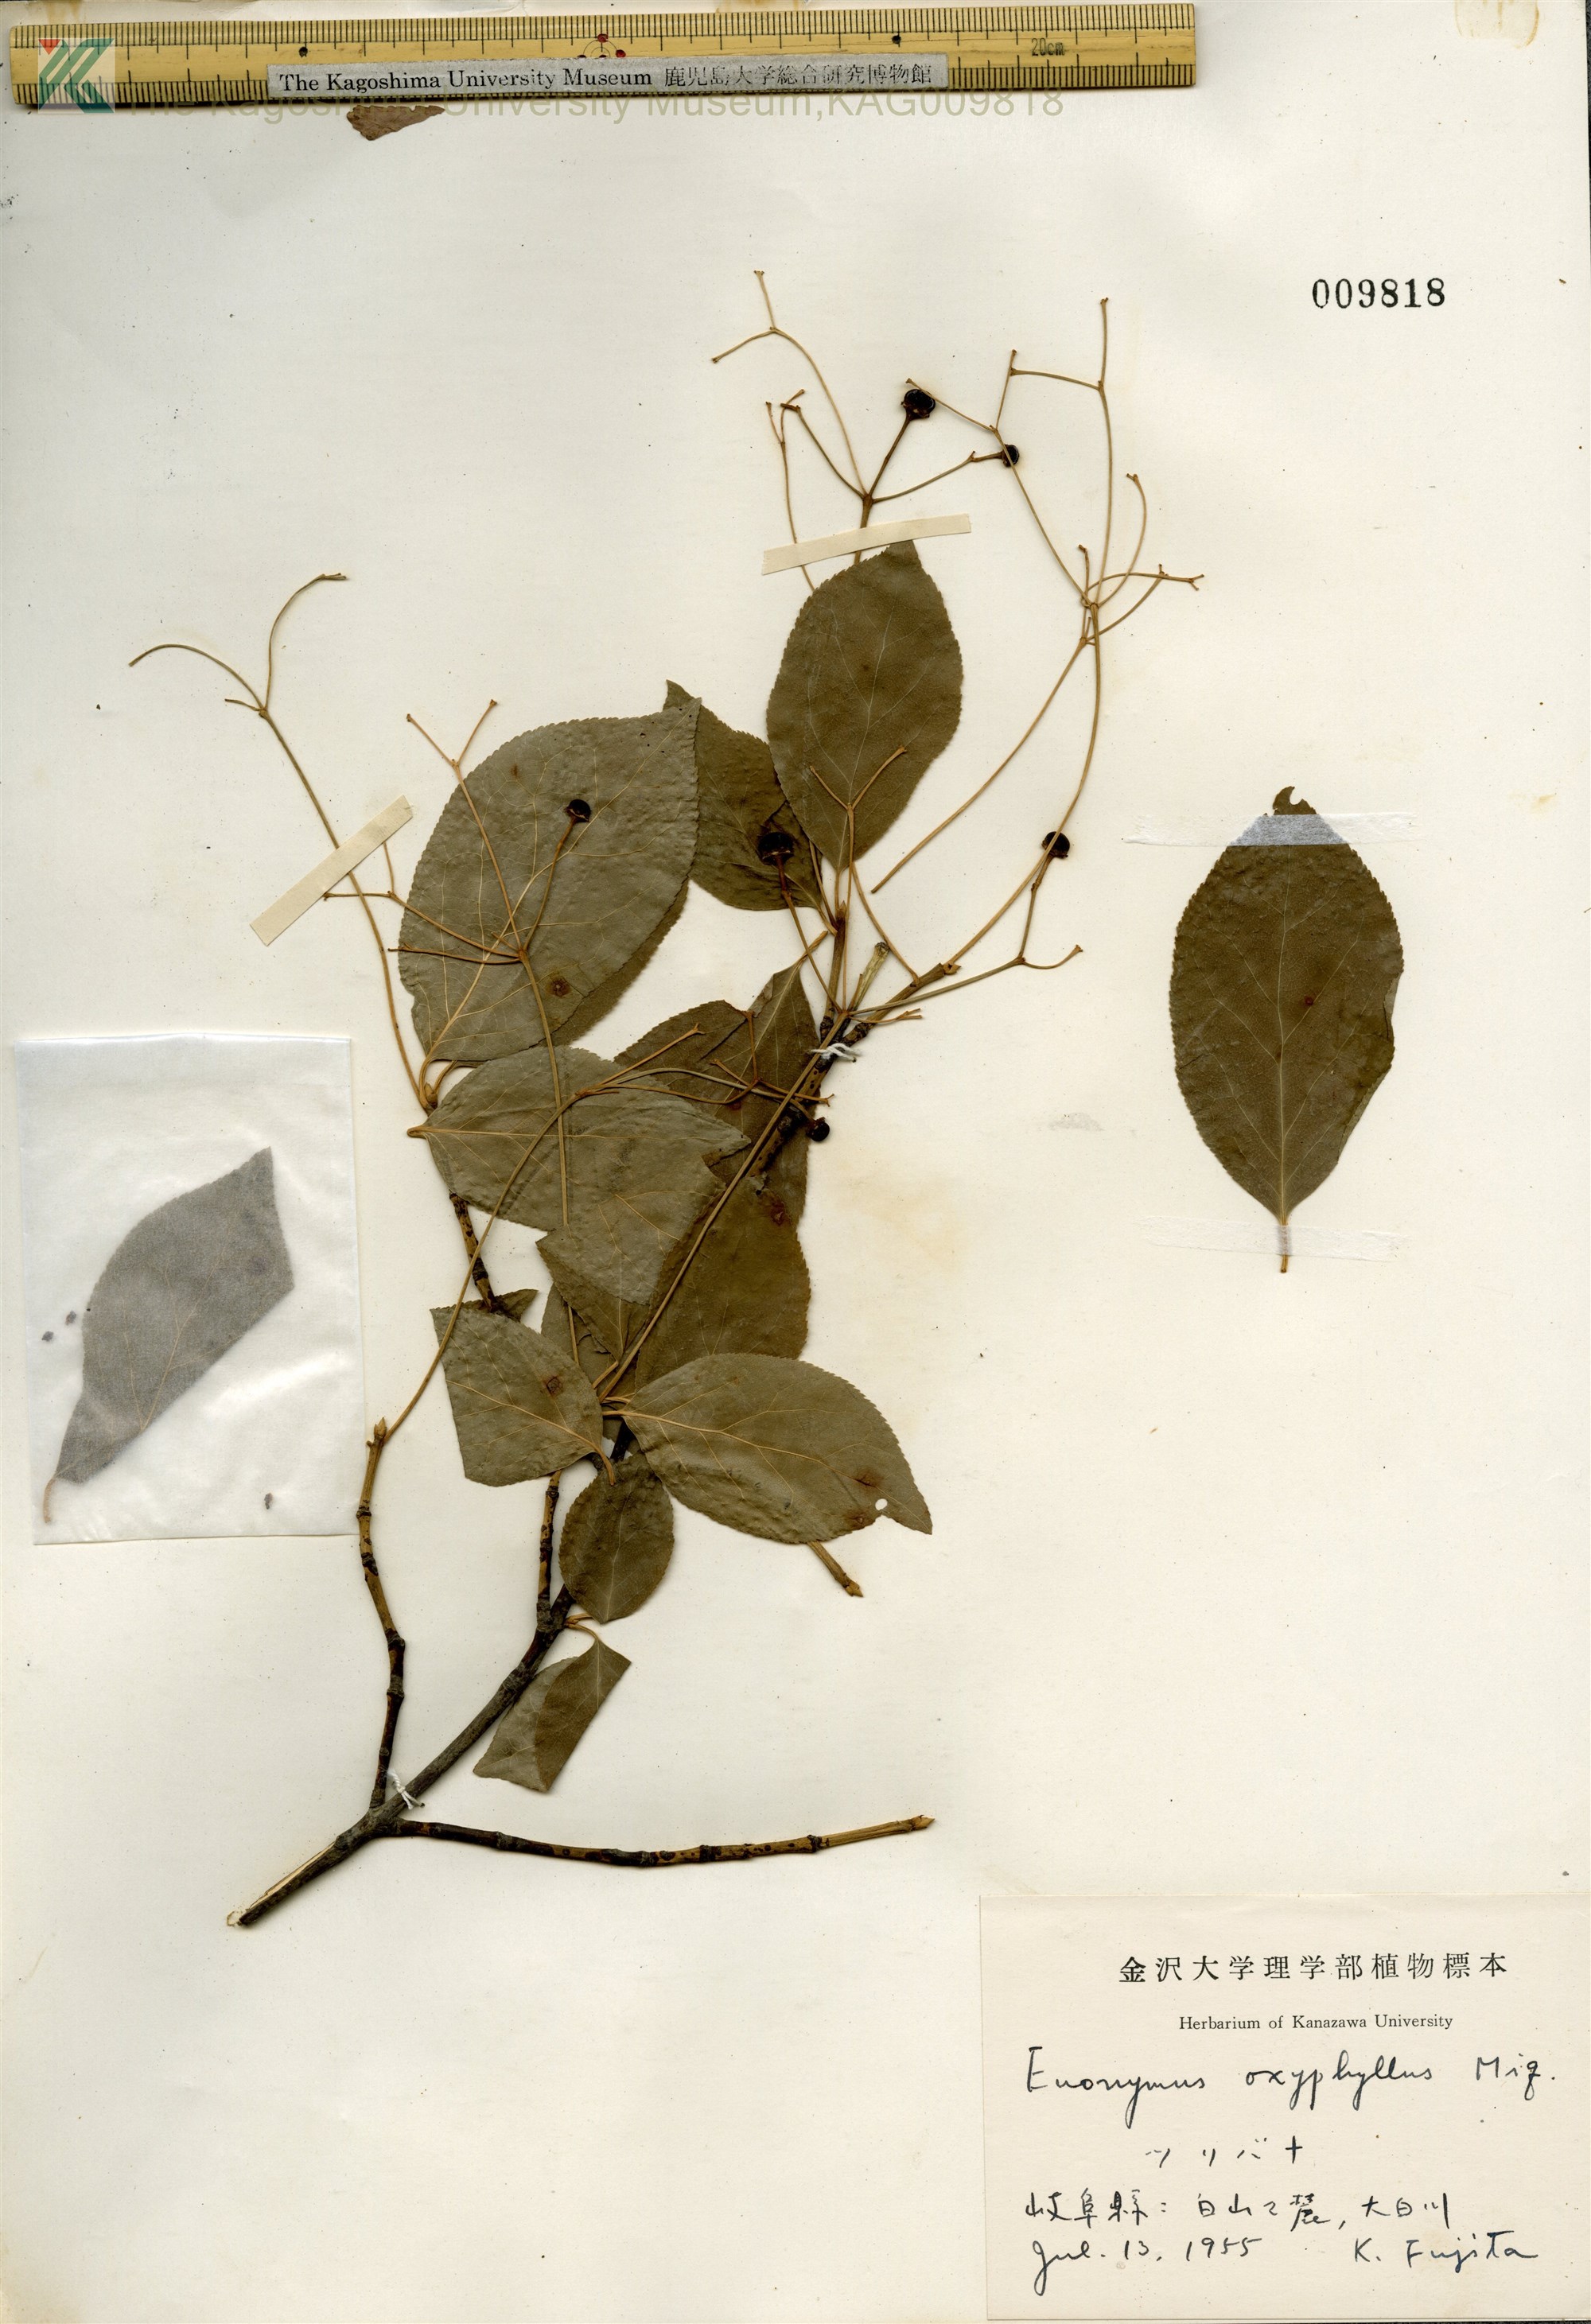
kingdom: Plantae
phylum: Tracheophyta
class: Magnoliopsida
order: Celastrales
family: Celastraceae
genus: Euonymus
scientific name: Euonymus oxyphyllus
